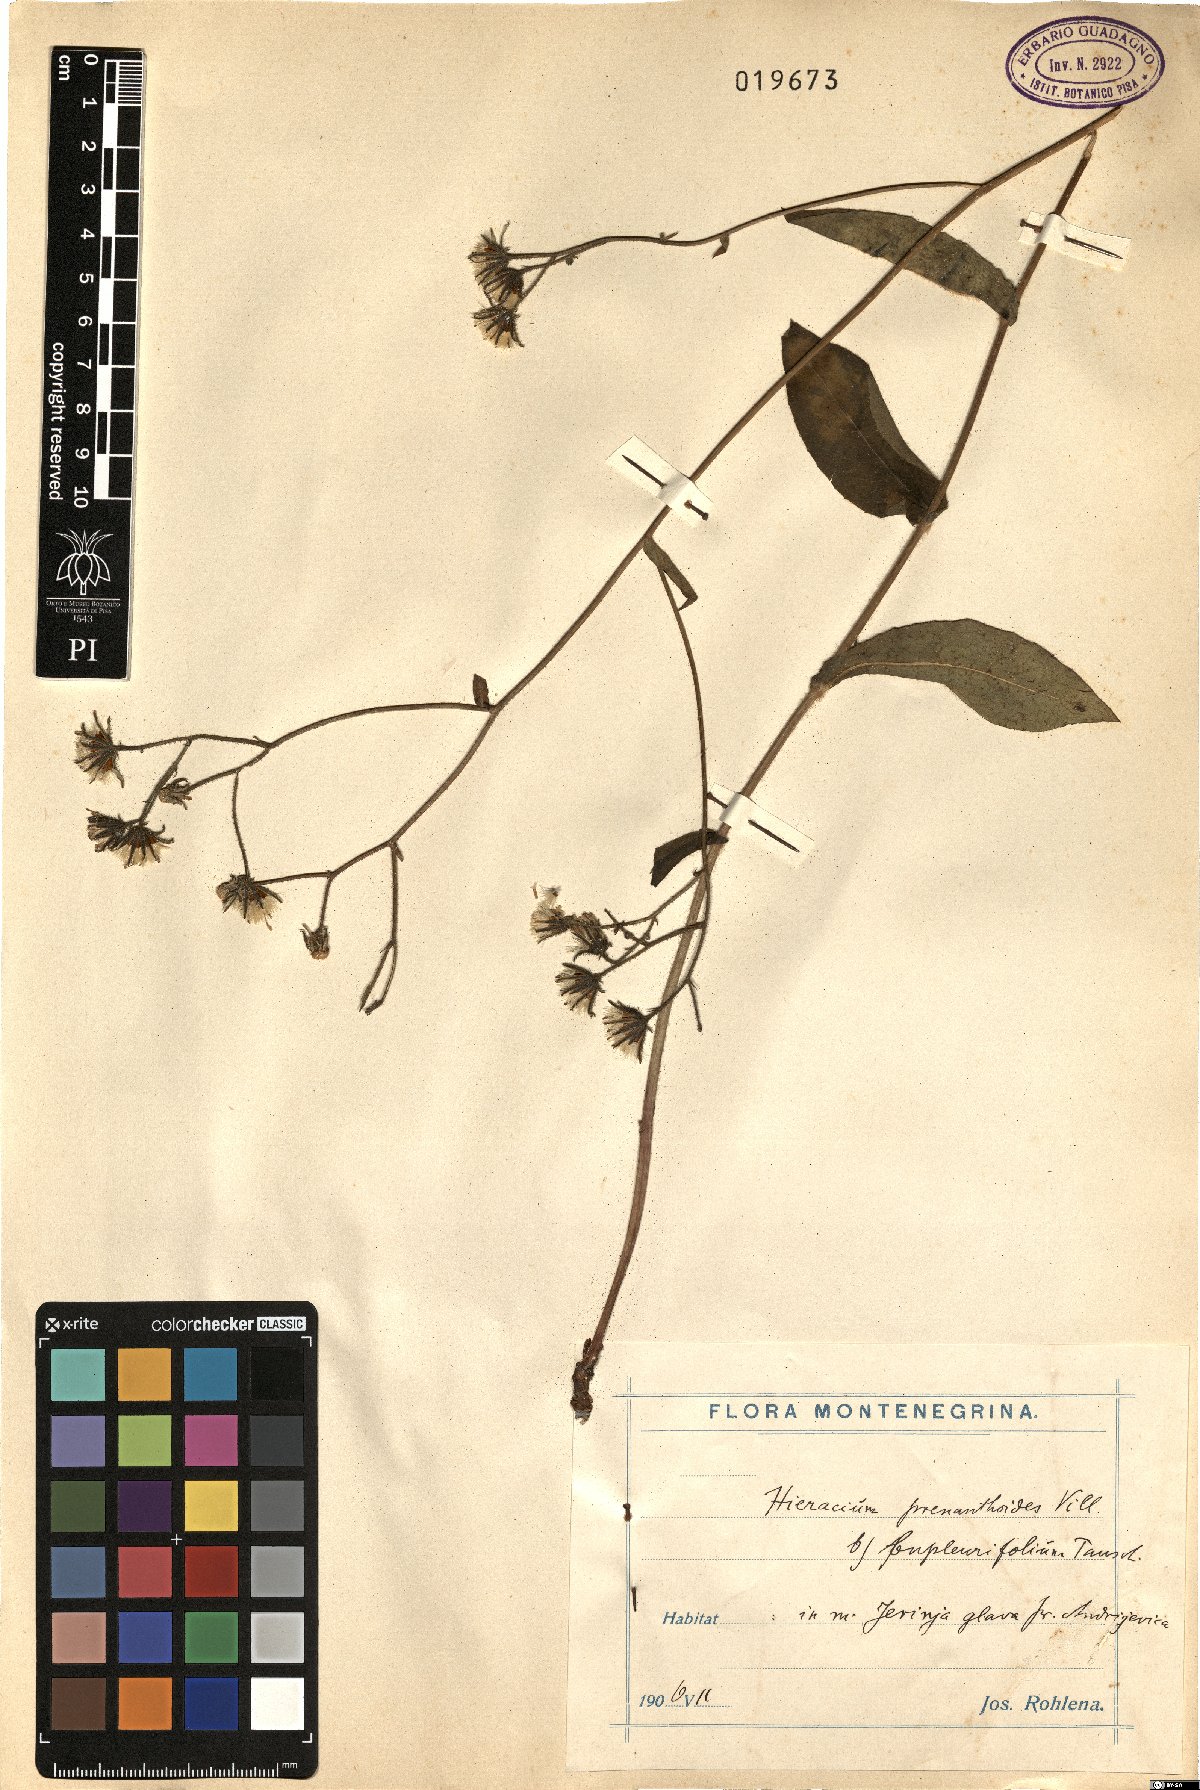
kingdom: Plantae
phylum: Tracheophyta
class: Magnoliopsida
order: Asterales
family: Asteraceae
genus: Hieracium
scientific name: Hieracium prenanthoides
